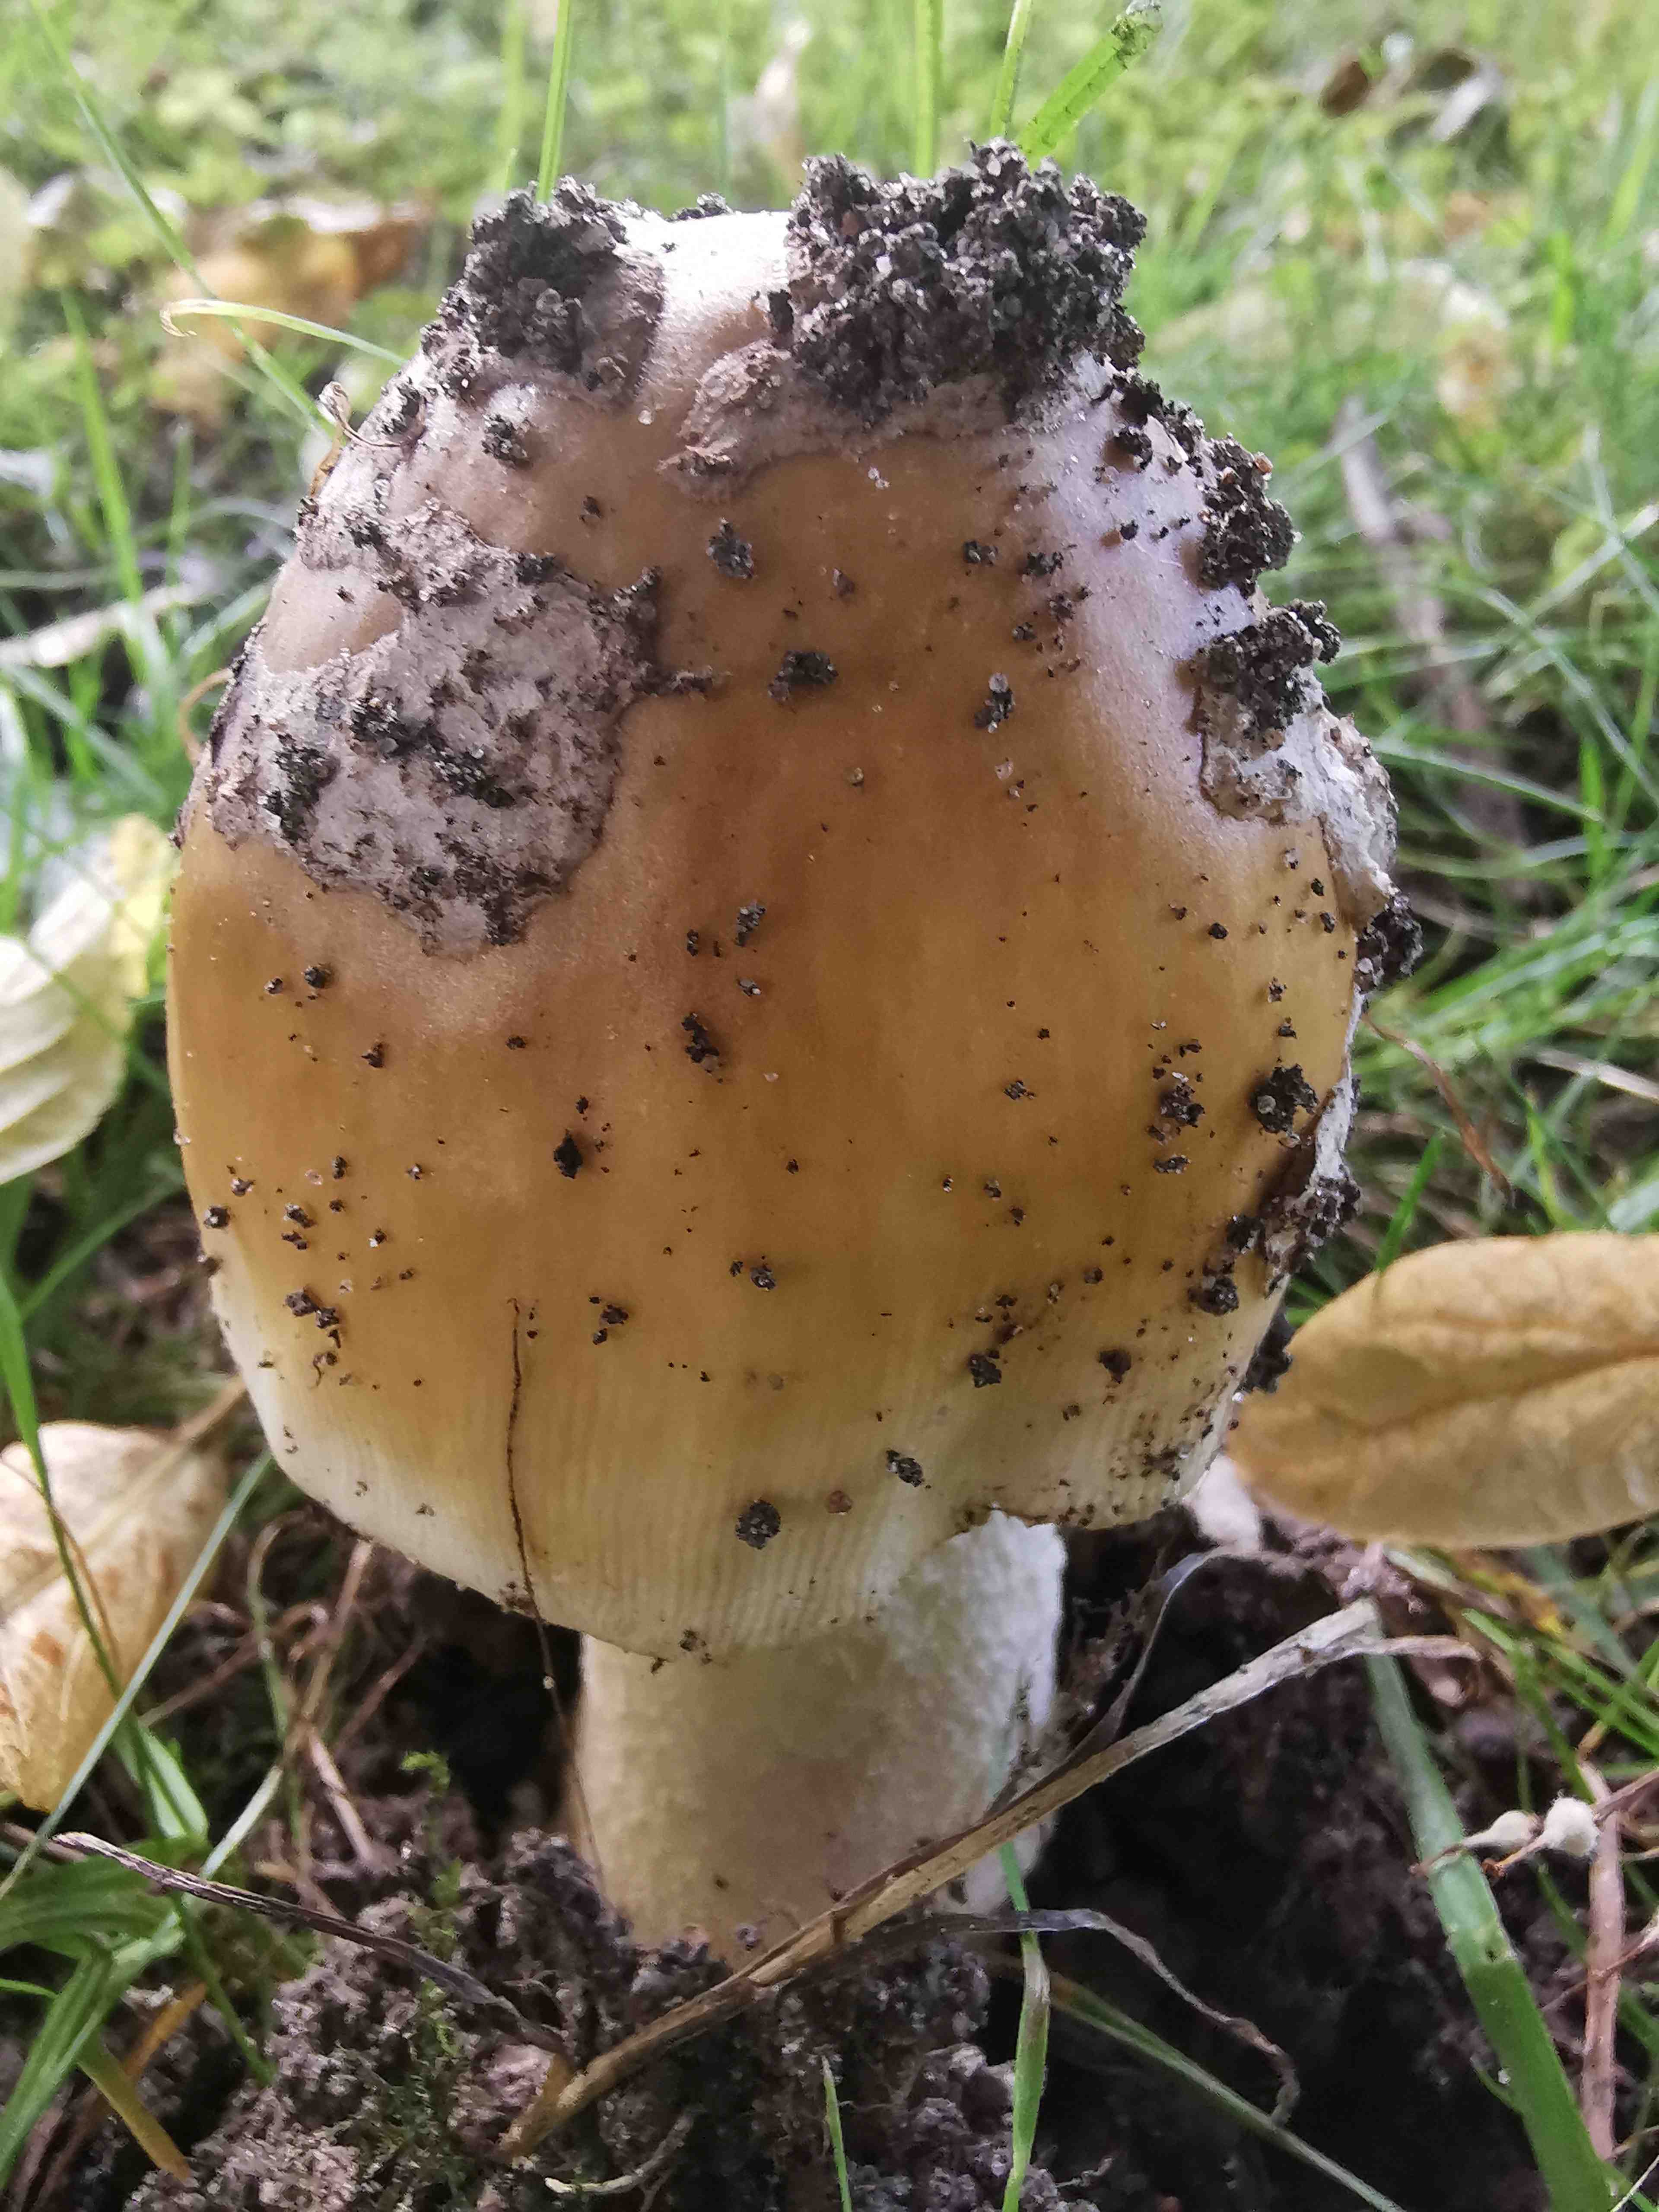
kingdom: Fungi
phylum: Basidiomycota
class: Agaricomycetes
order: Agaricales
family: Amanitaceae
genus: Amanita
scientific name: Amanita ceciliae
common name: stor kam-fluesvamp
